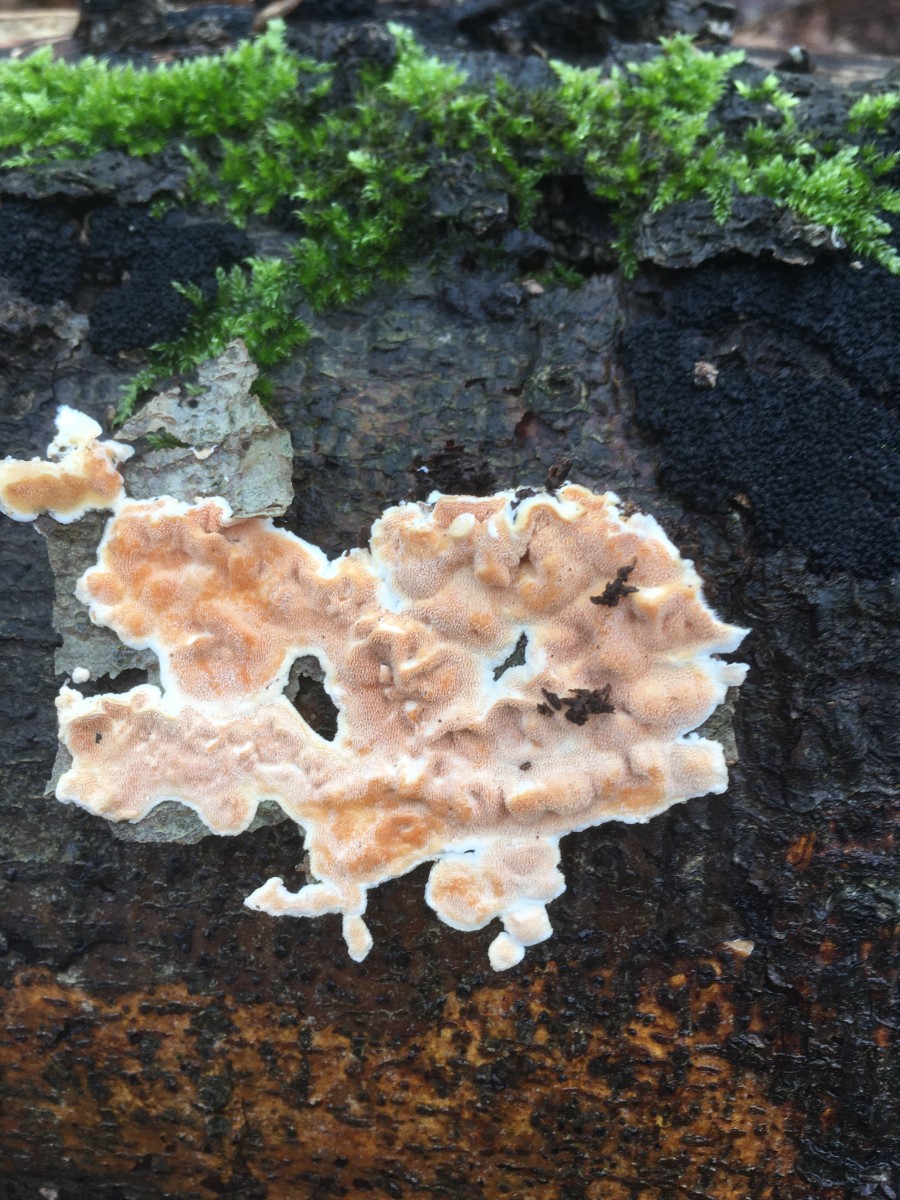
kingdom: Fungi
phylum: Basidiomycota
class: Agaricomycetes
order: Polyporales
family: Steccherinaceae
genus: Steccherinum
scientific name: Steccherinum ochraceum
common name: almindelig skønpig
